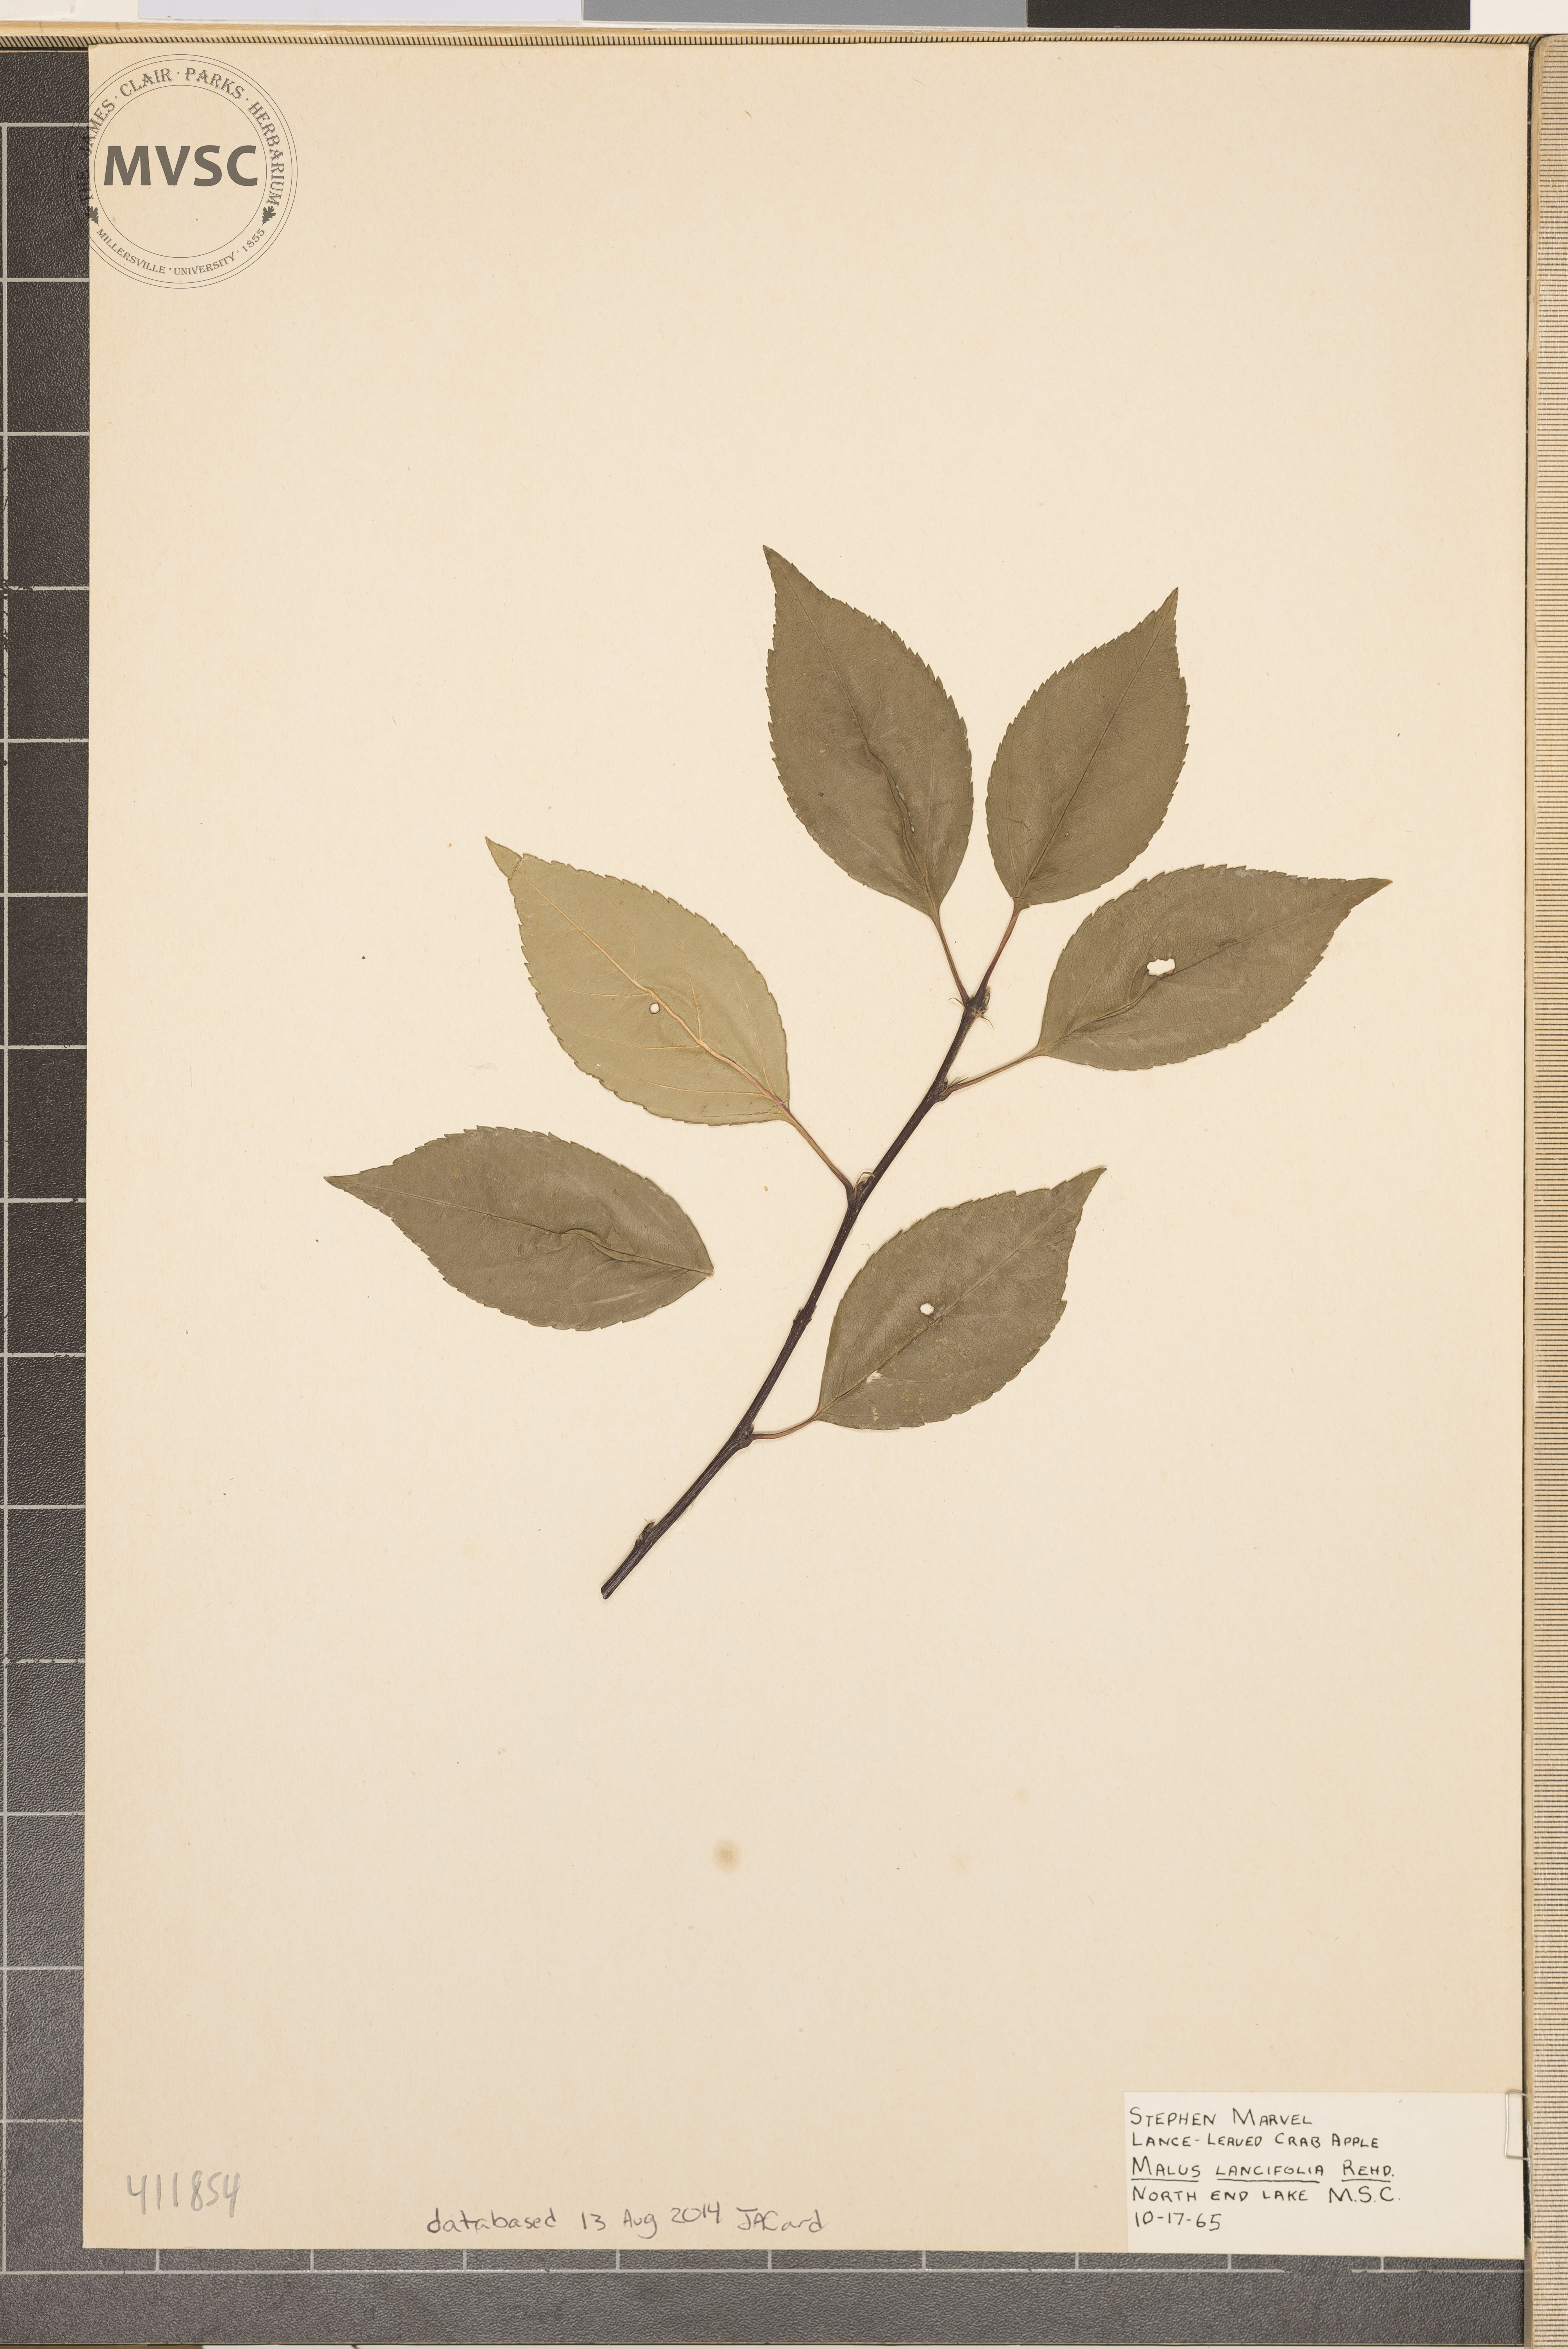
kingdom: Plantae
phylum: Tracheophyta
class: Magnoliopsida
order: Rosales
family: Rosaceae
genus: Malus
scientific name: Malus coronaria
